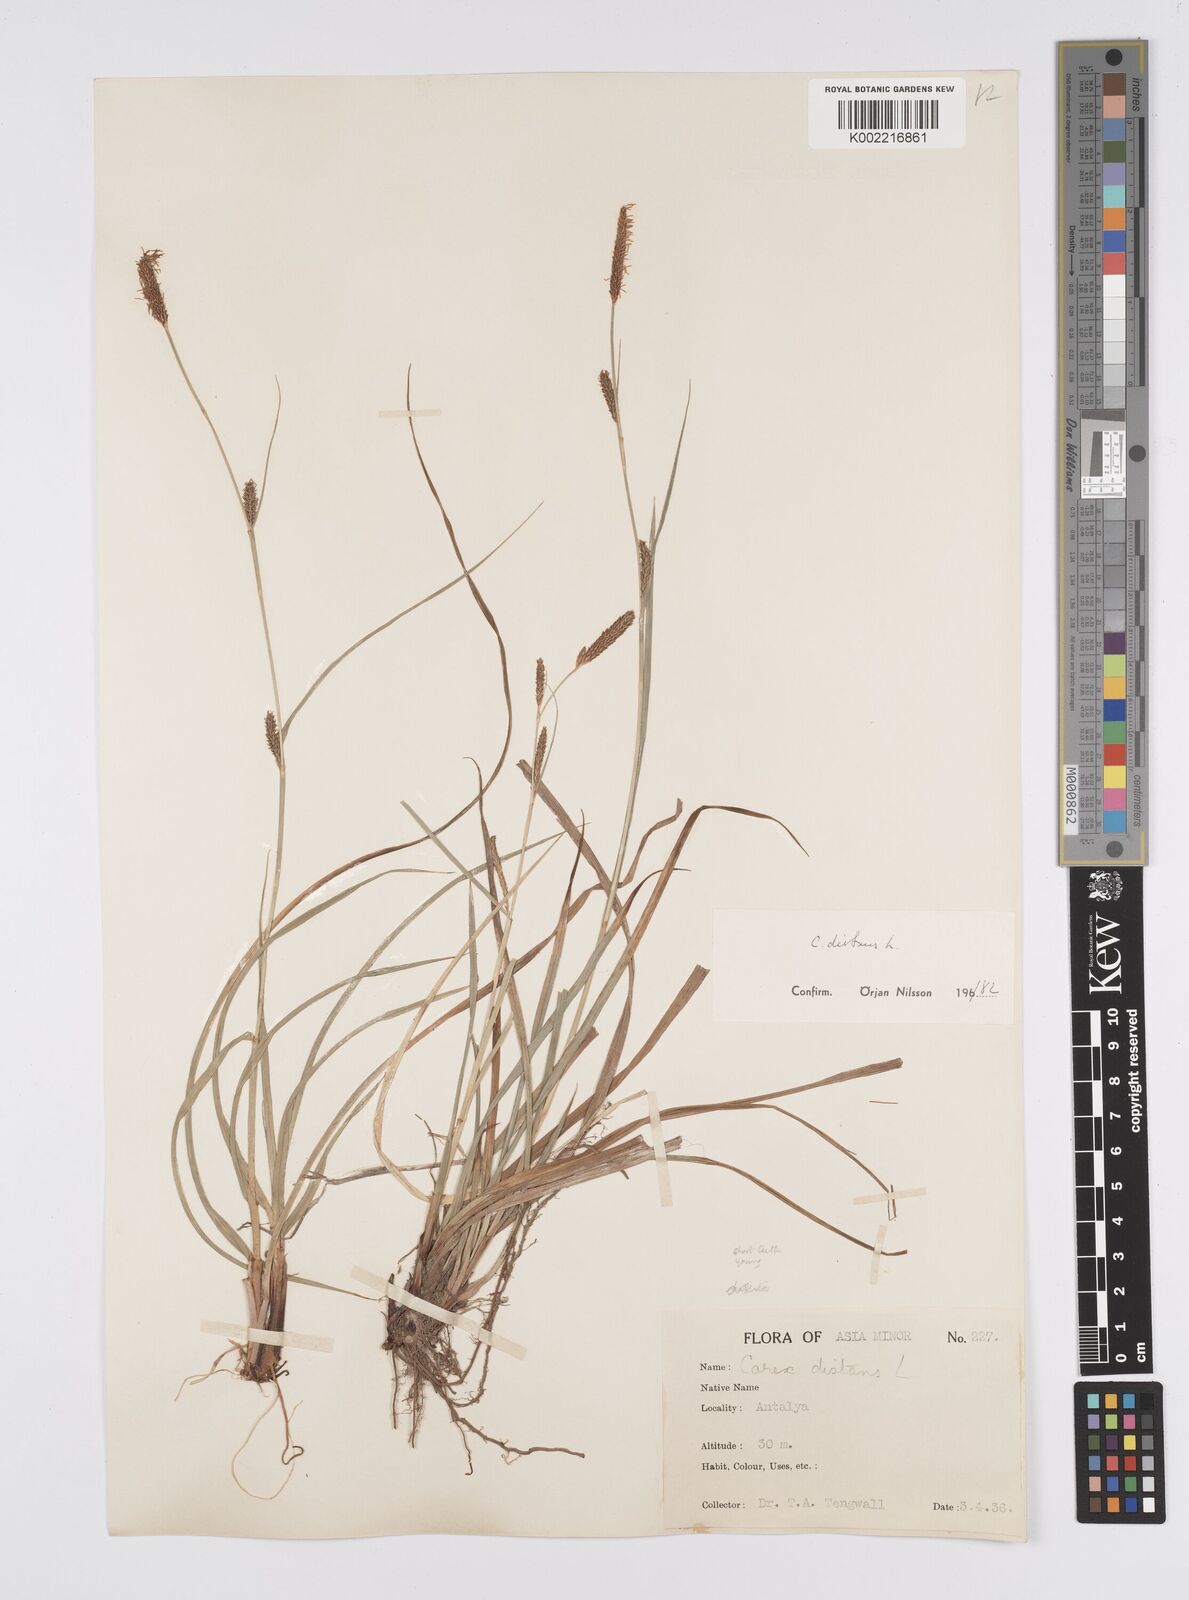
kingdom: Plantae
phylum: Tracheophyta
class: Liliopsida
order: Poales
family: Cyperaceae
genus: Carex
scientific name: Carex distans
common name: Distant sedge
